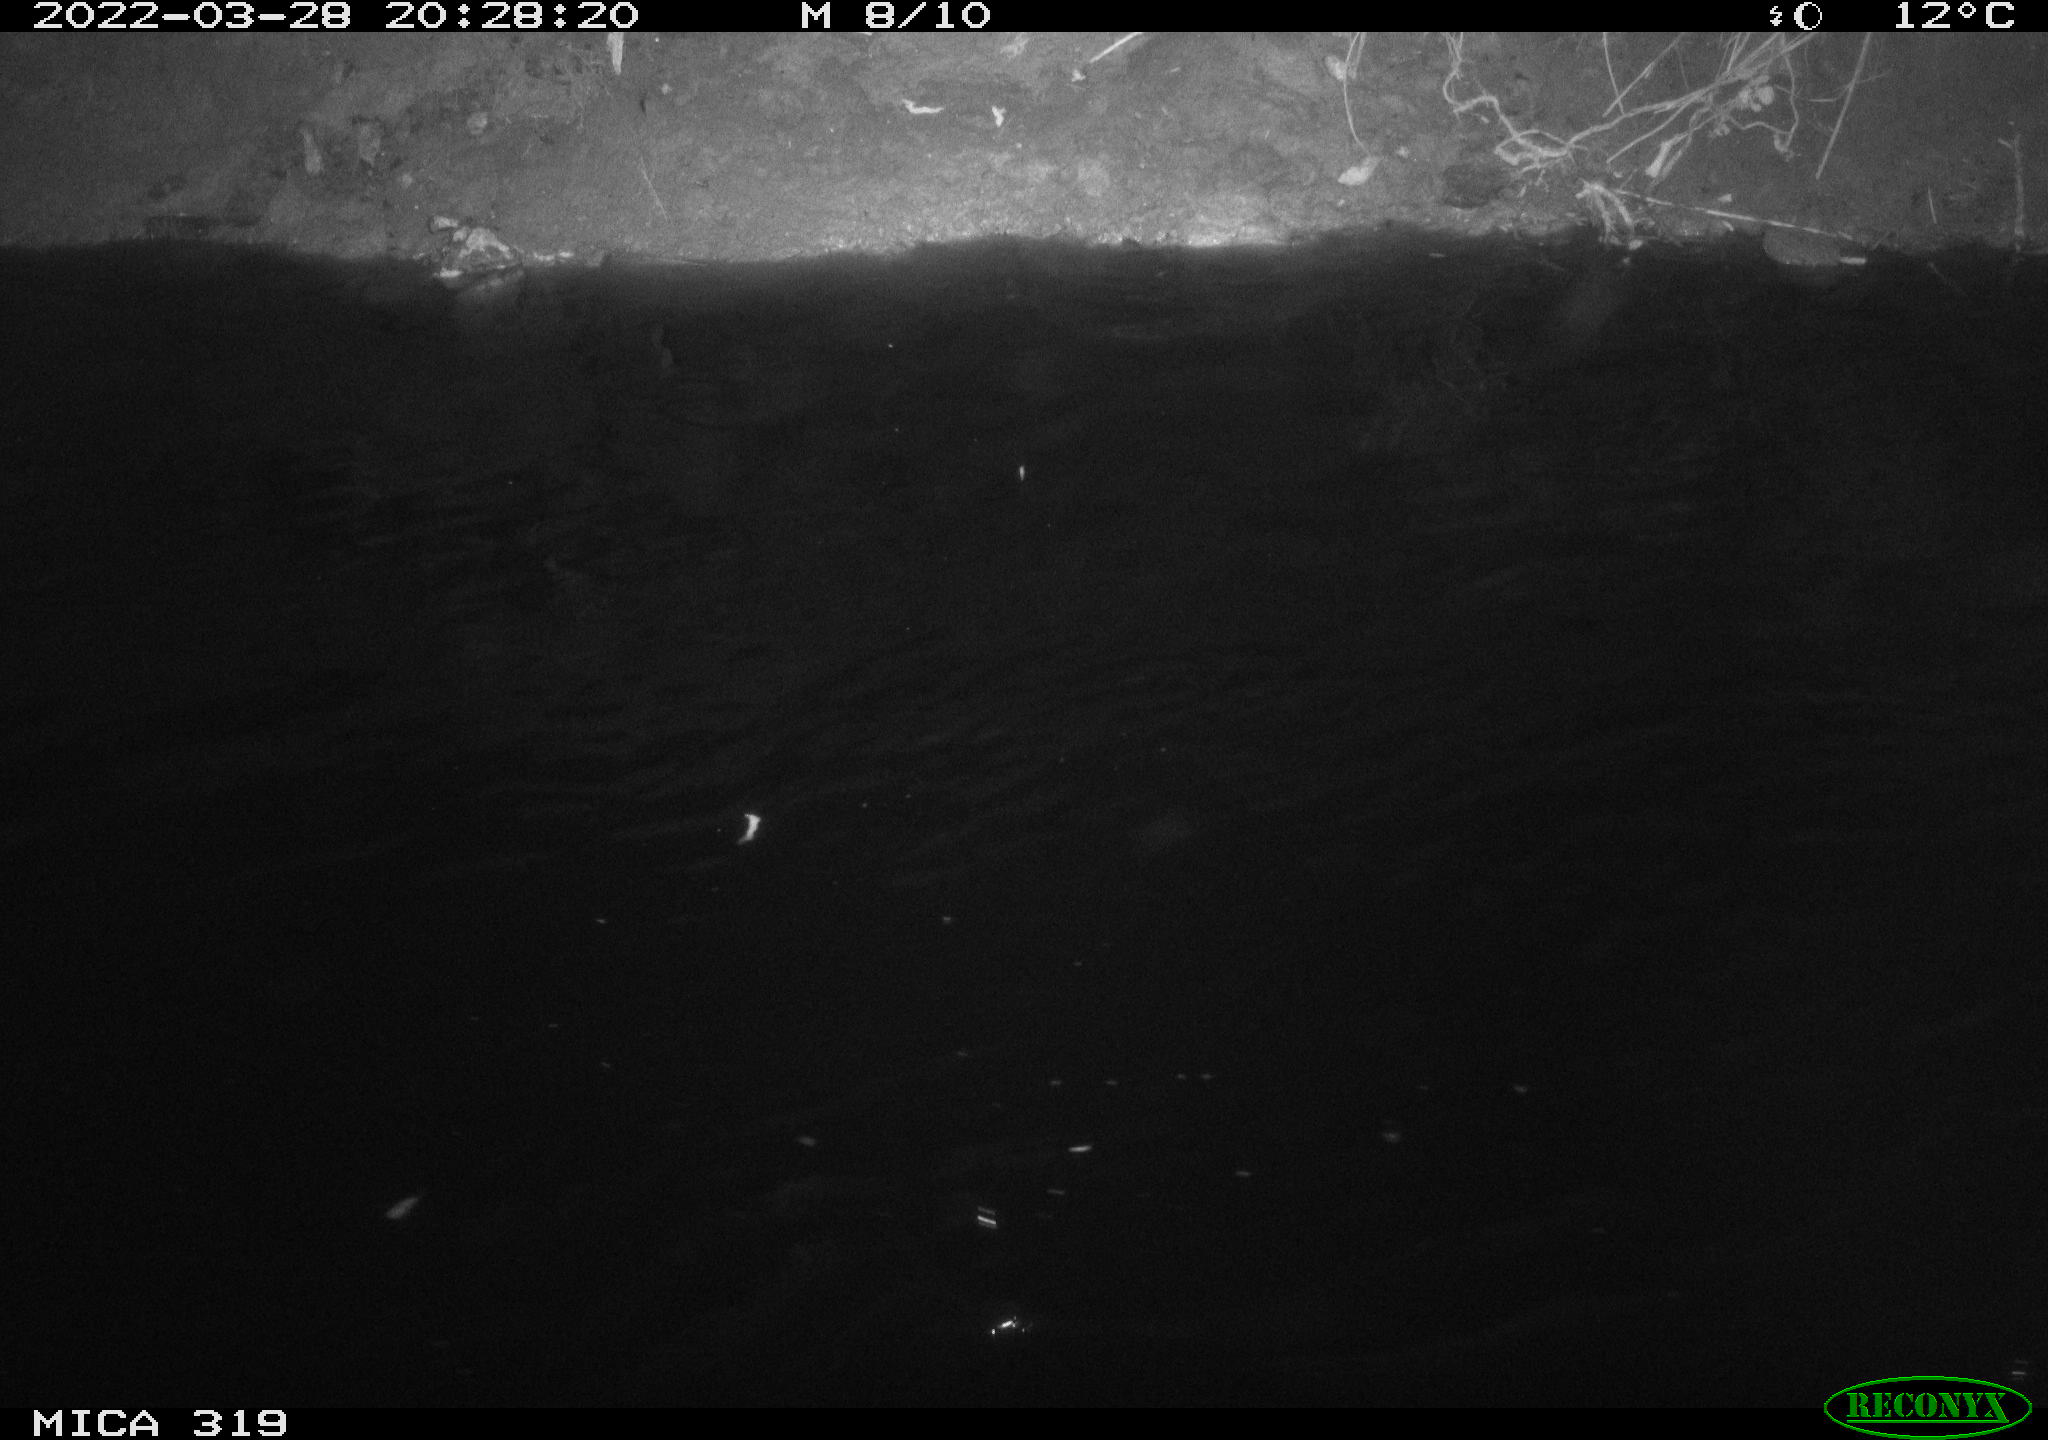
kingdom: Animalia
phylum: Chordata
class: Aves
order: Anseriformes
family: Anatidae
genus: Anas
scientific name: Anas platyrhynchos
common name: Mallard
